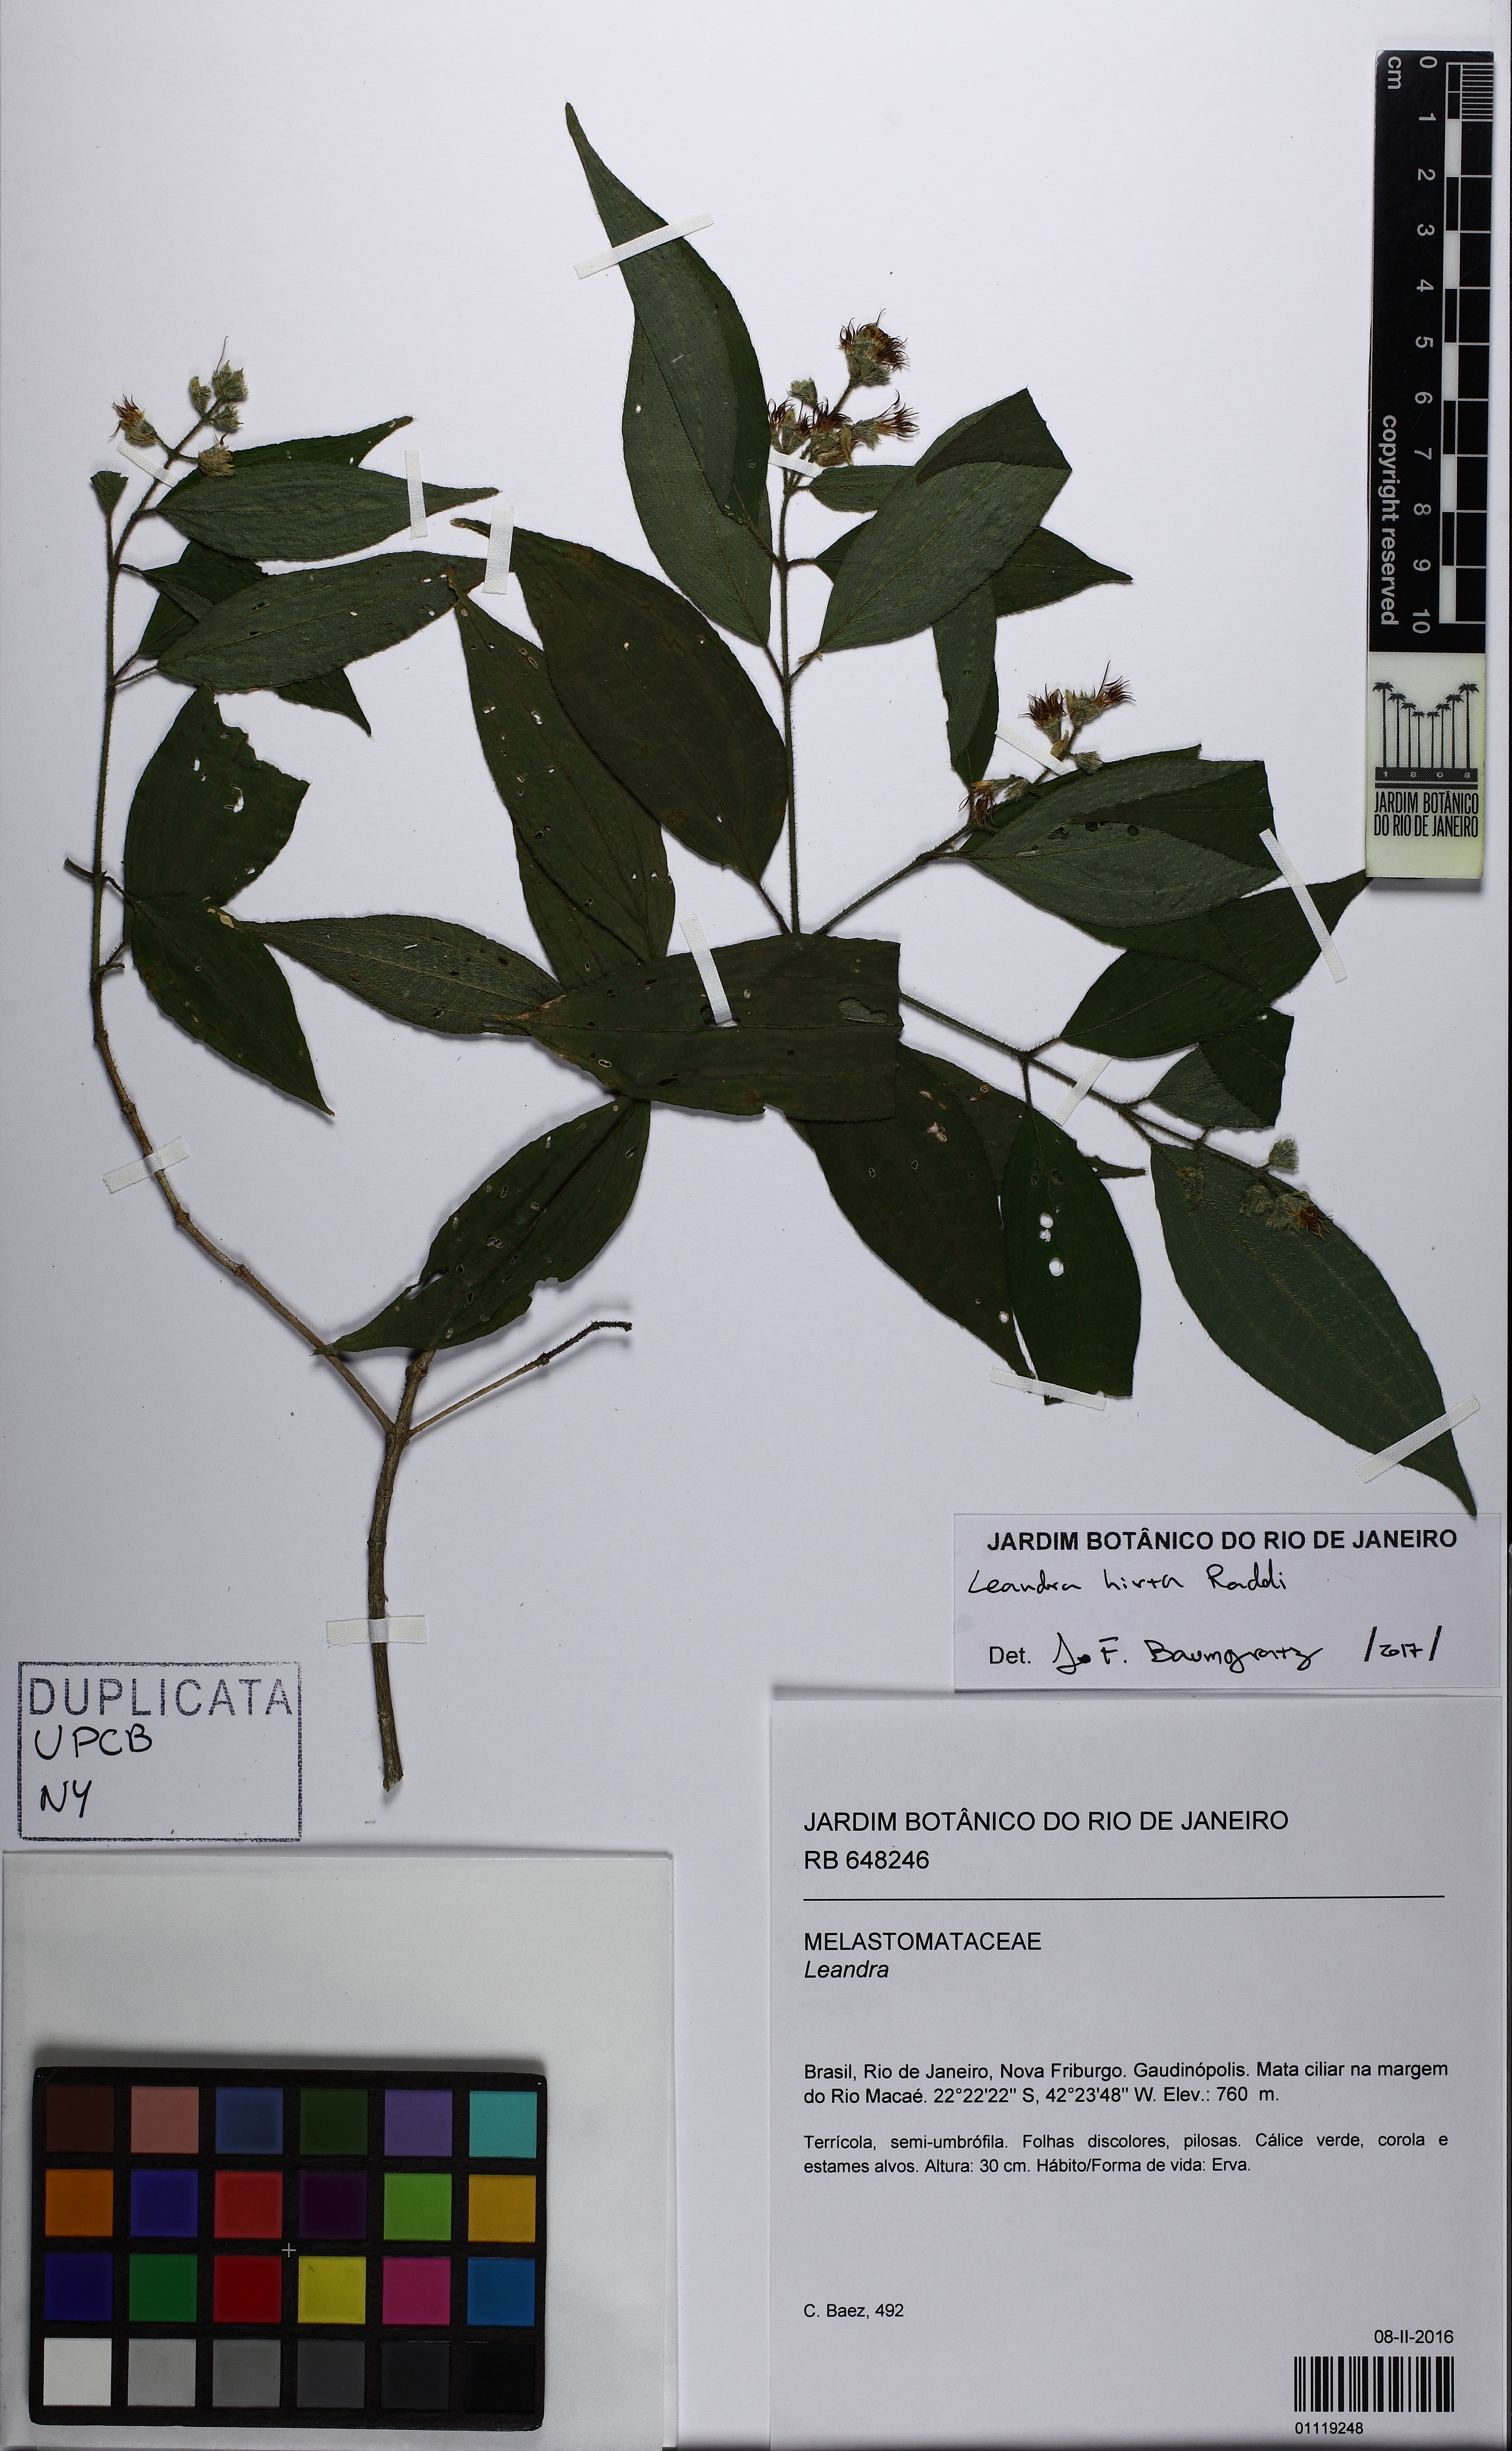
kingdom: Plantae
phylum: Tracheophyta
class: Magnoliopsida
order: Myrtales
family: Melastomataceae
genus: Miconia
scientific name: Miconia dubia
